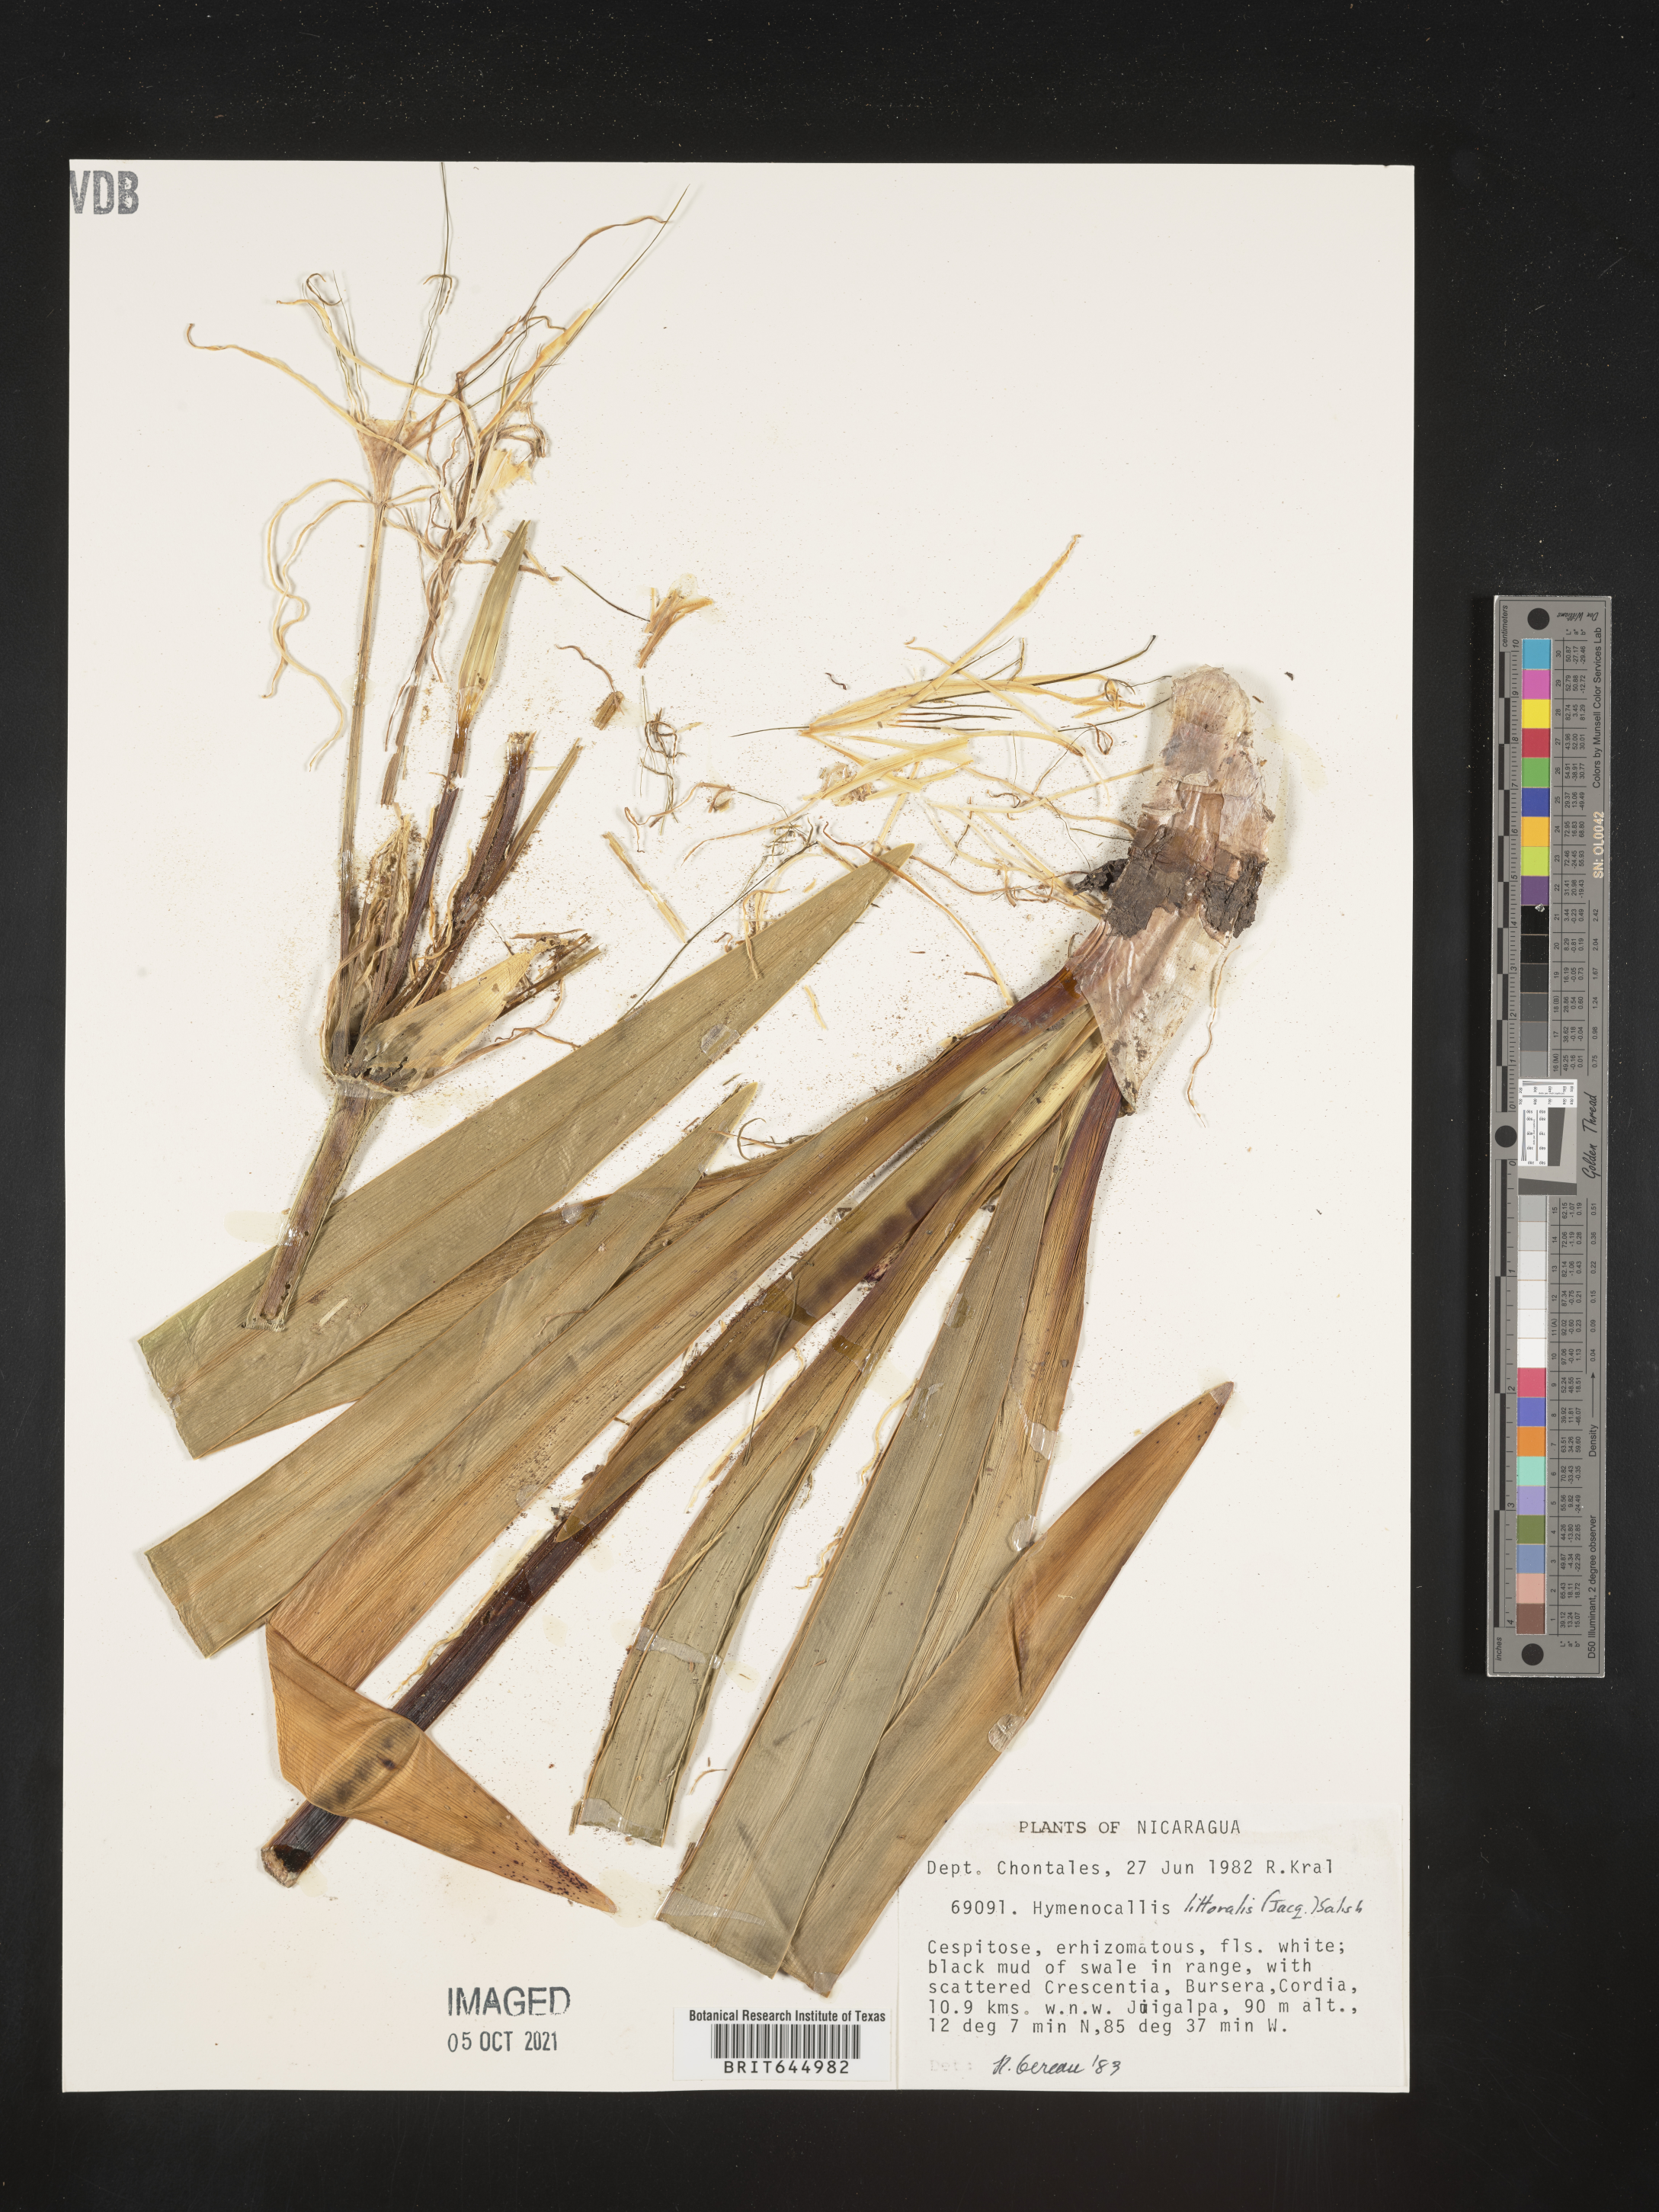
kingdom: Plantae
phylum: Tracheophyta
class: Liliopsida
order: Asparagales
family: Amaryllidaceae
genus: Hymenocallis
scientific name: Hymenocallis littoralis
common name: Beach spiderlily
